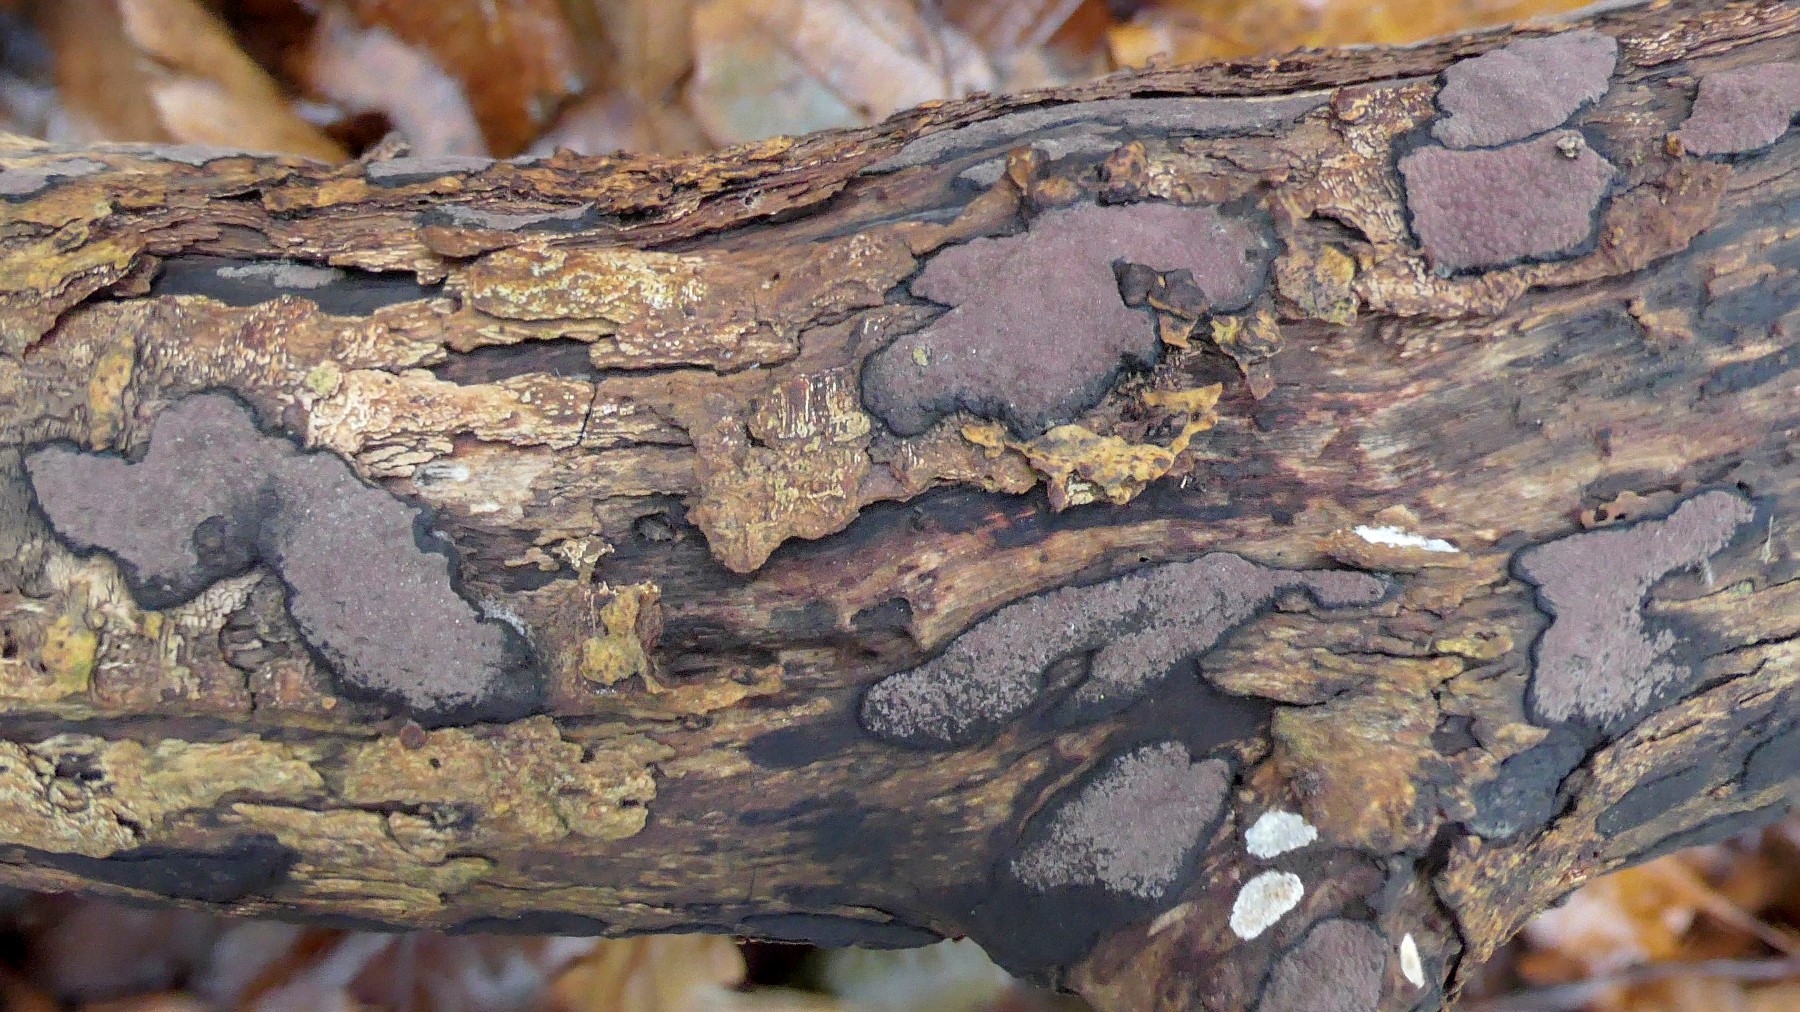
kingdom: Fungi
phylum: Ascomycota
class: Sordariomycetes
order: Xylariales
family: Hypoxylaceae
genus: Hypoxylon
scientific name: Hypoxylon petriniae
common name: nedsænket kulbær
